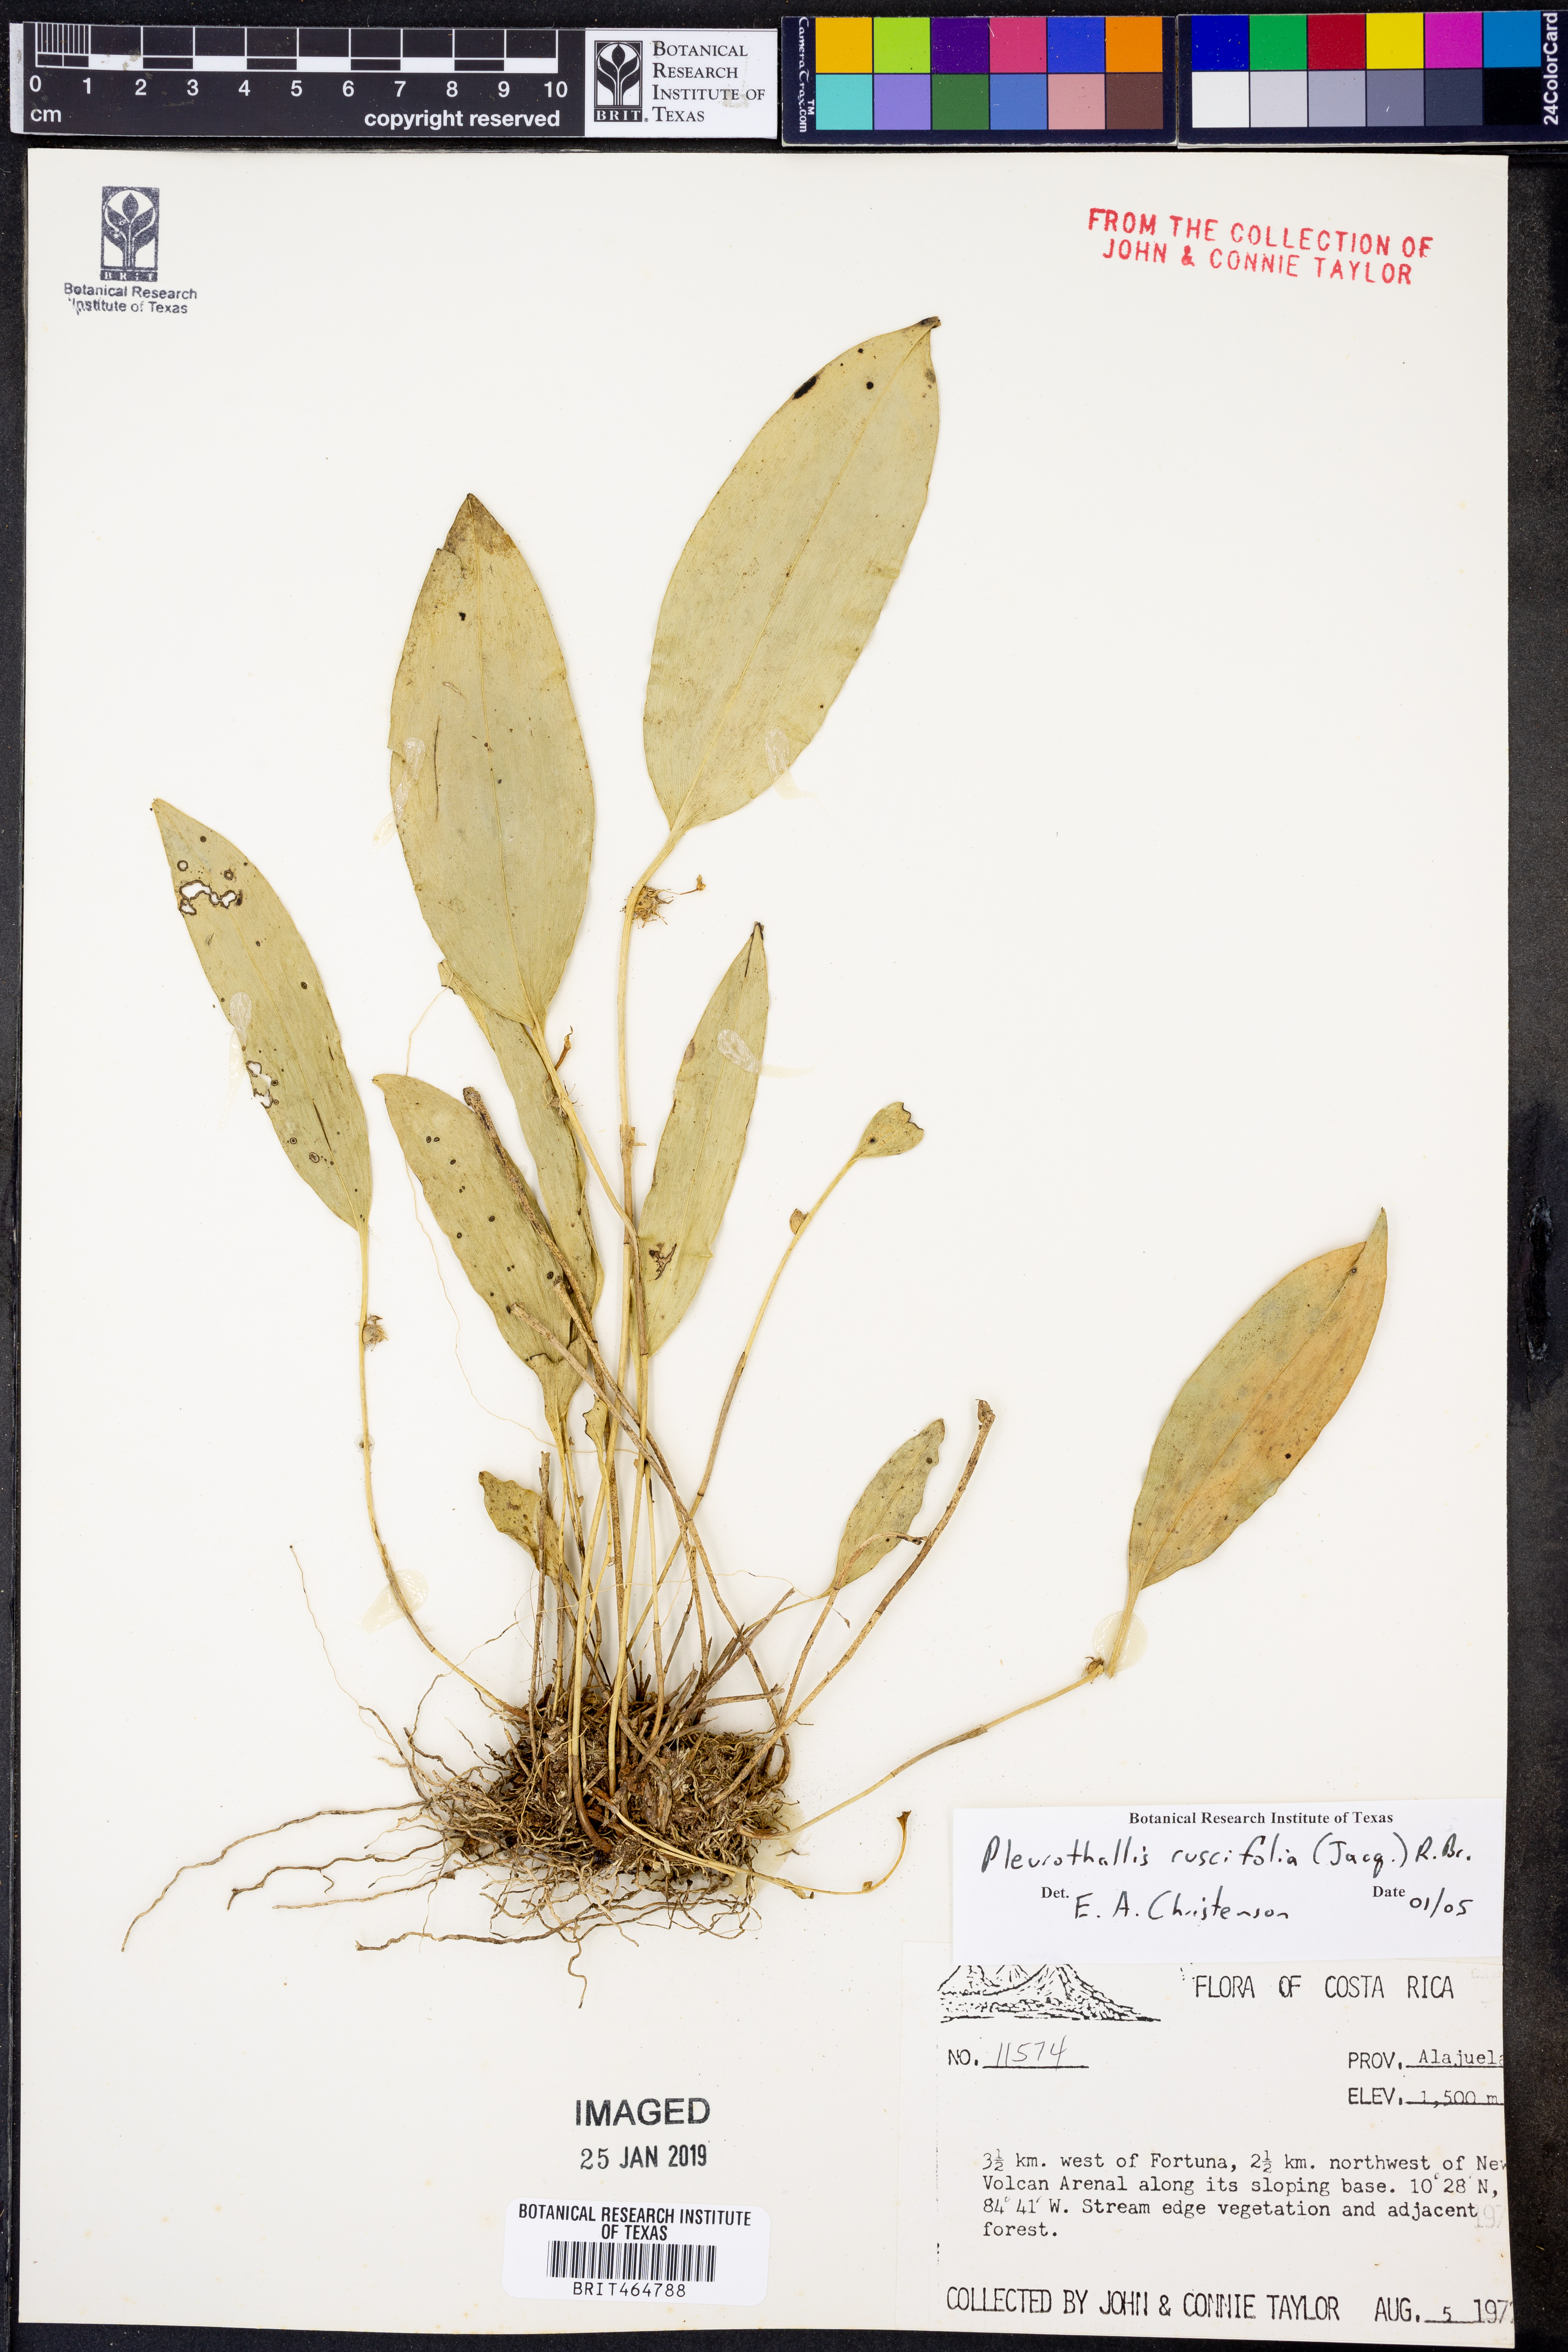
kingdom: Plantae
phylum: Tracheophyta
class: Liliopsida
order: Asparagales
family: Orchidaceae
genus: Pleurothallis
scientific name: Pleurothallis ruscifolia
